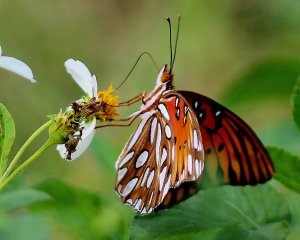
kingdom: Animalia
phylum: Arthropoda
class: Insecta
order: Lepidoptera
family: Nymphalidae
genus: Dione
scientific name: Dione vanillae
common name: Gulf Fritillary
